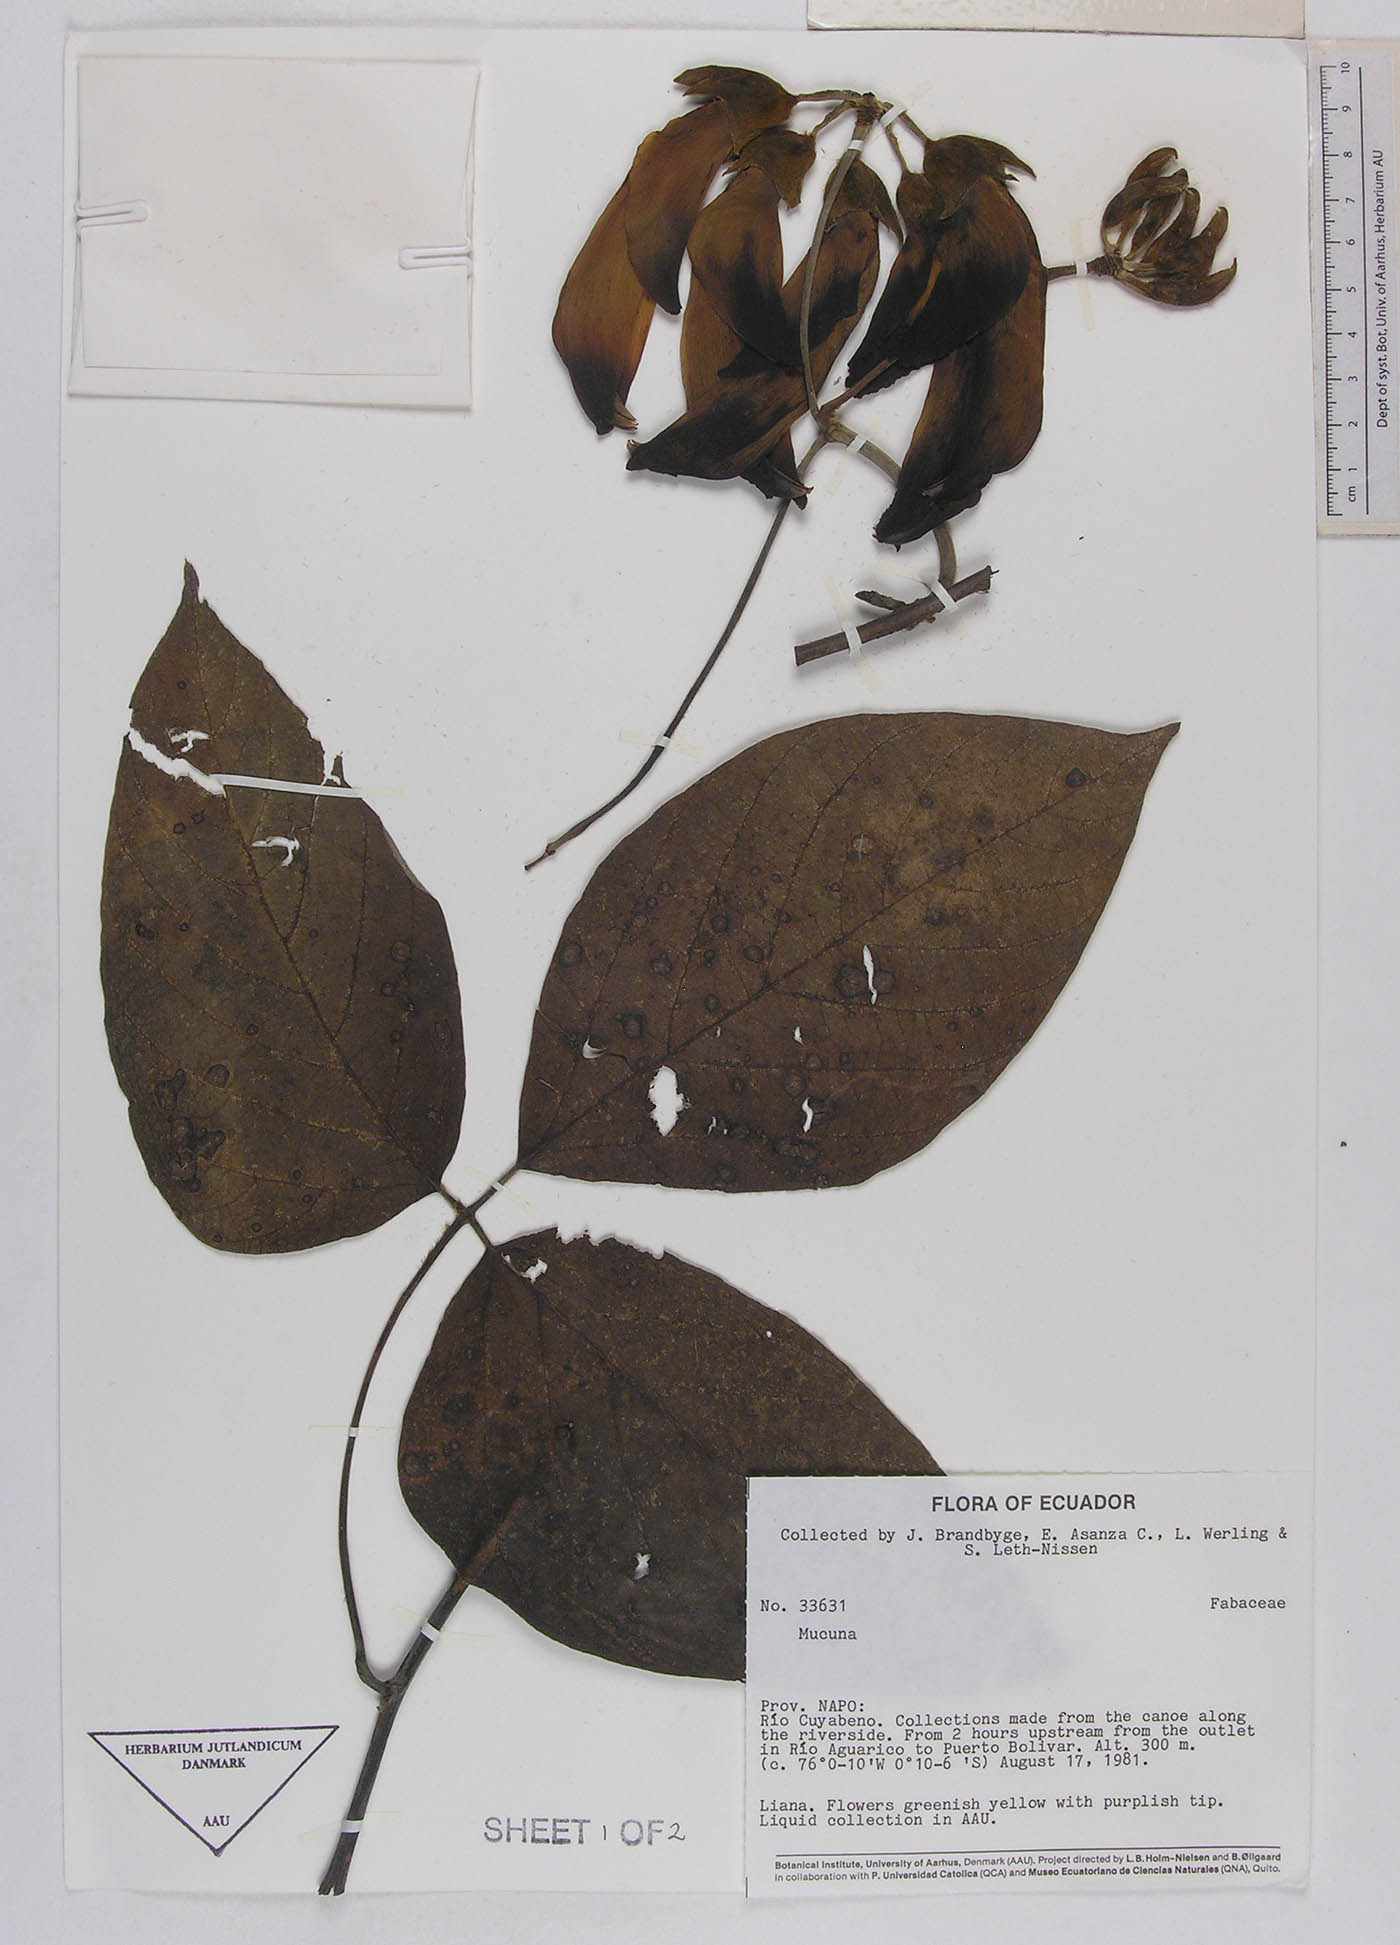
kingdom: Plantae
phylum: Tracheophyta
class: Magnoliopsida
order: Fabales
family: Fabaceae
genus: Mucuna
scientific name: Mucuna argentea
